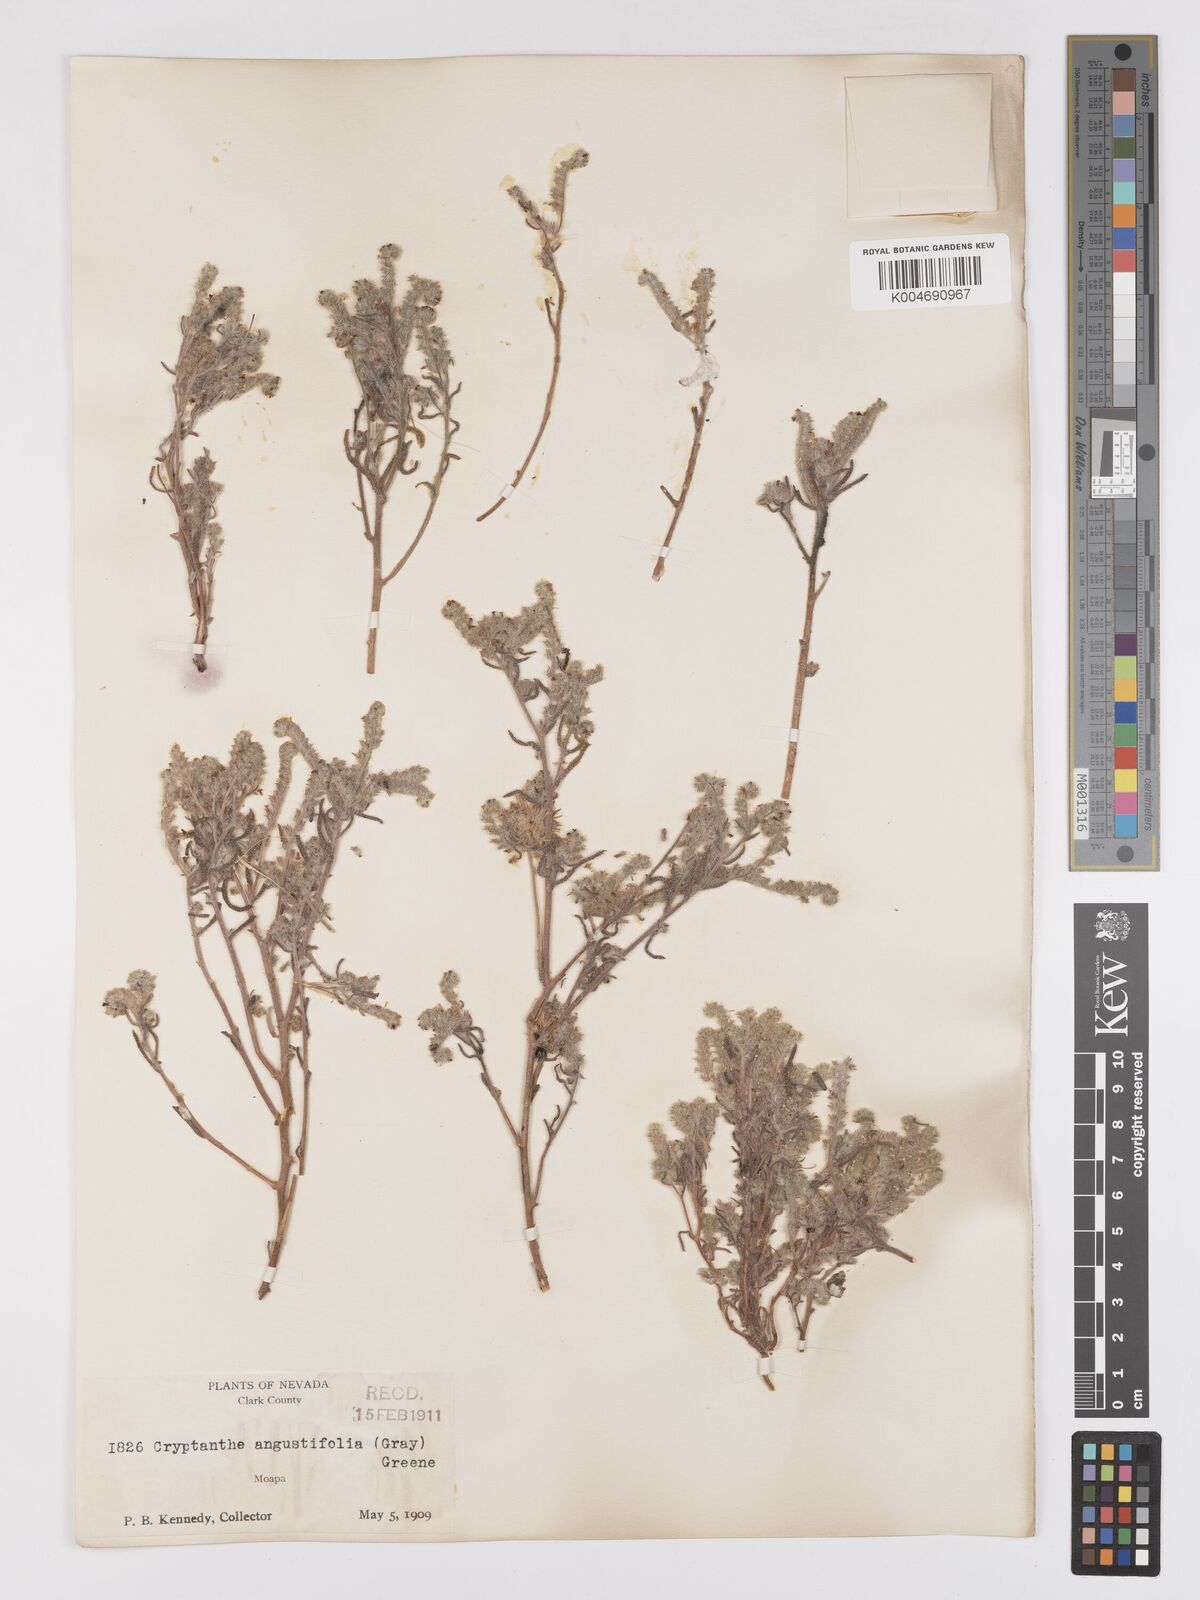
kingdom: Plantae
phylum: Tracheophyta
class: Magnoliopsida
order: Boraginales
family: Boraginaceae
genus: Johnstonella
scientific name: Johnstonella angustifolia
